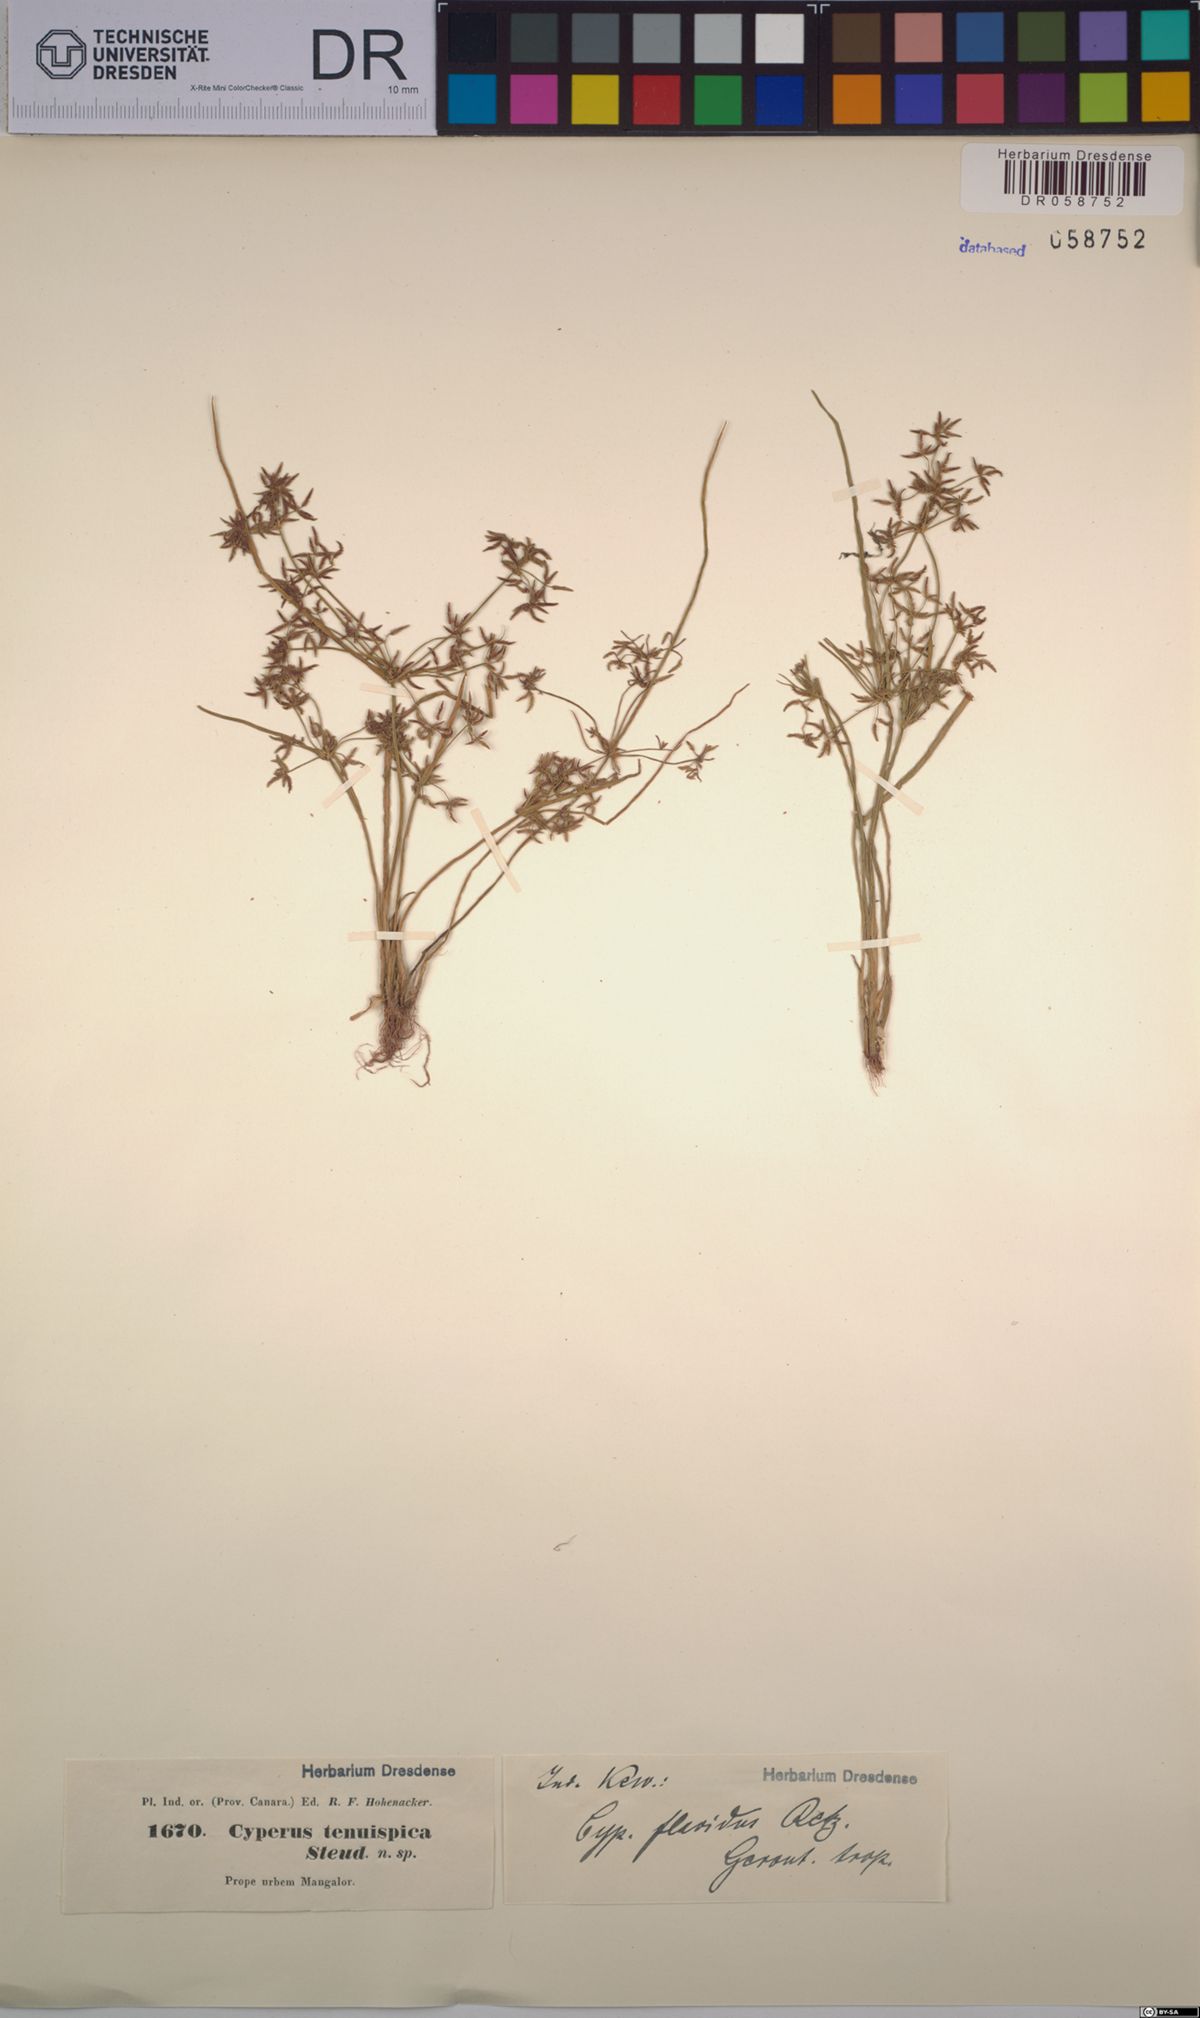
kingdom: Plantae
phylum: Tracheophyta
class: Liliopsida
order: Poales
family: Cyperaceae
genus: Cyperus
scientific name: Cyperus tenuispica
